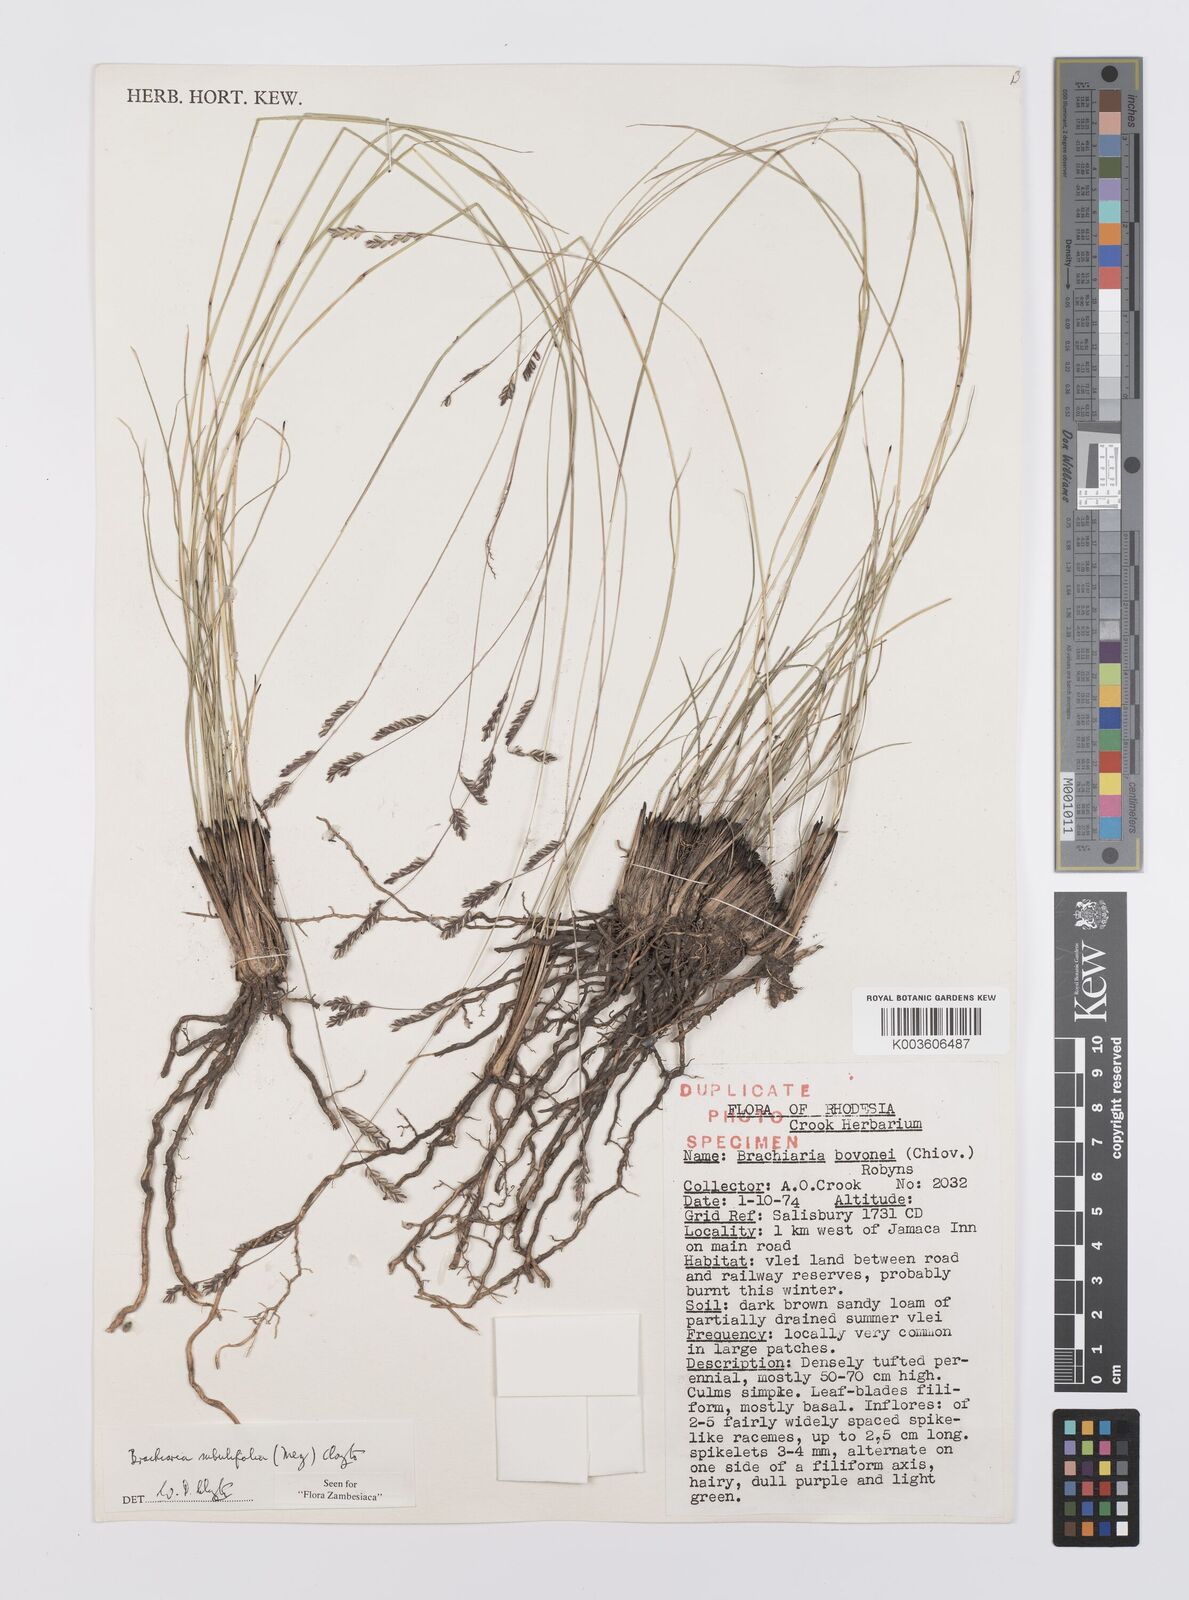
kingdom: Plantae
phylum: Tracheophyta
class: Liliopsida
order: Poales
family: Poaceae
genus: Urochloa
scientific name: Urochloa subulifolia
